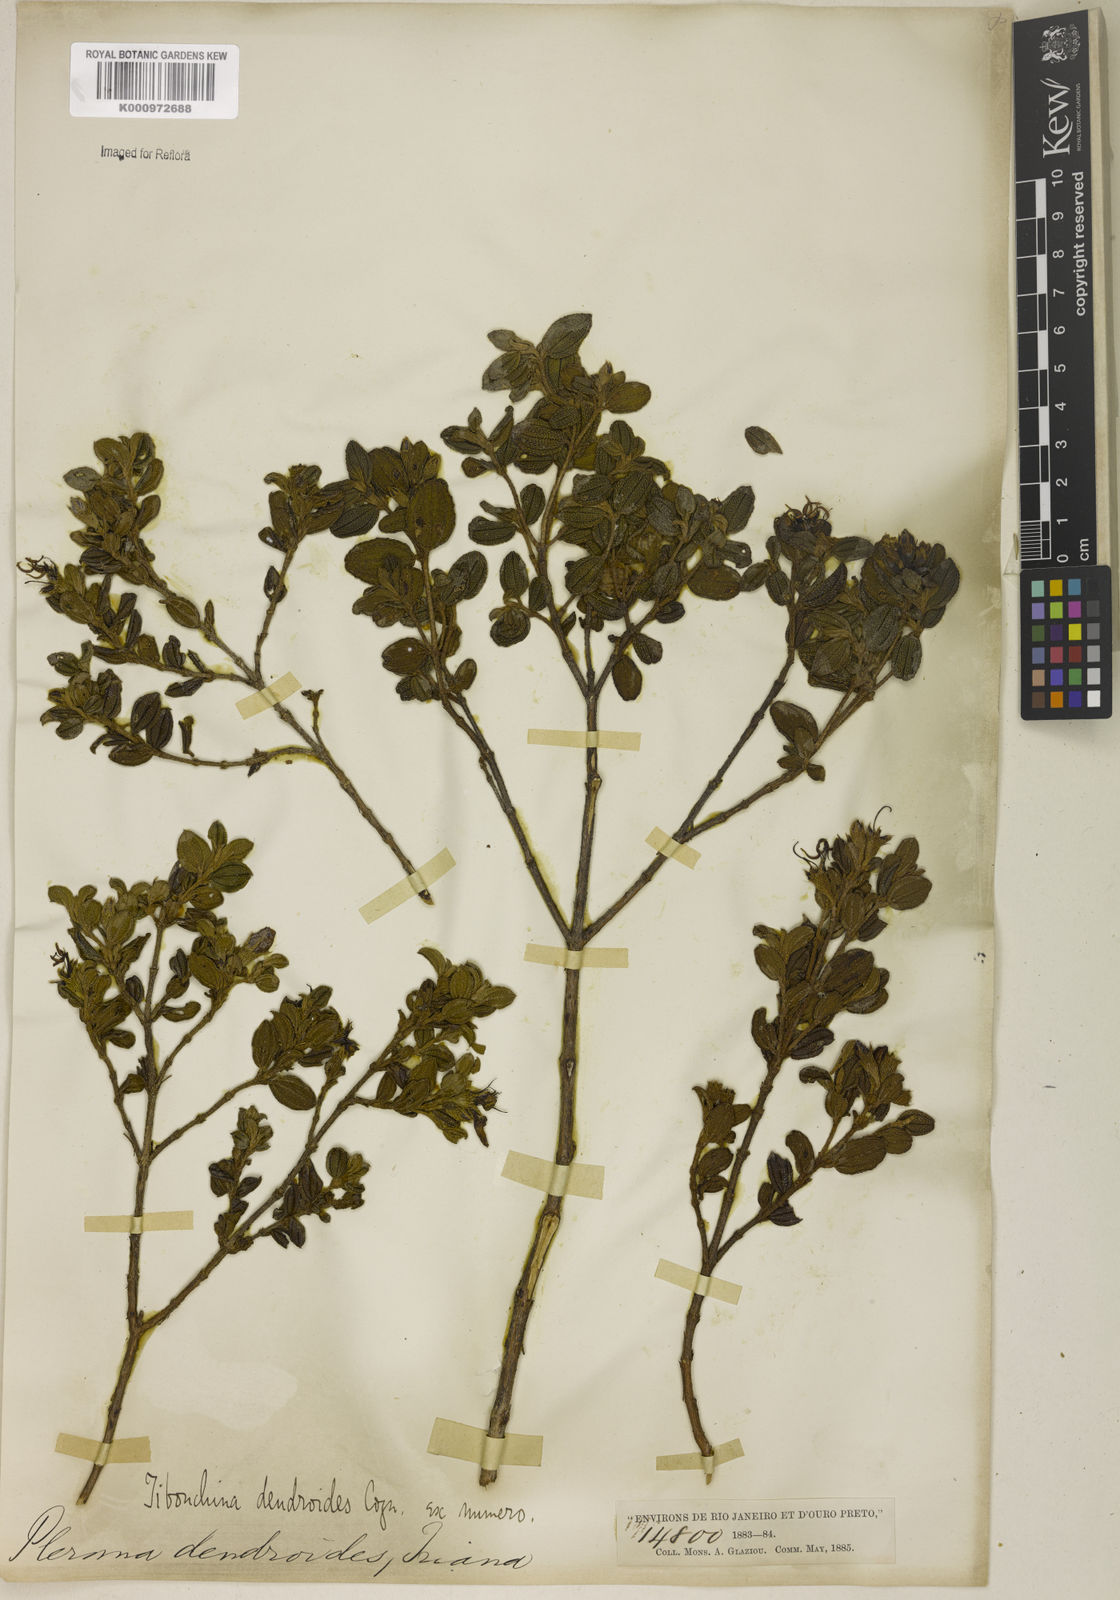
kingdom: Plantae
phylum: Tracheophyta
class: Magnoliopsida
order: Myrtales
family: Melastomataceae
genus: Pleroma
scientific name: Pleroma dendroides
